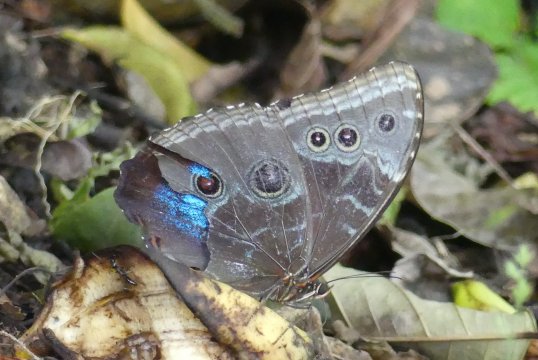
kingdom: Animalia
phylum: Arthropoda
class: Insecta
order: Lepidoptera
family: Nymphalidae
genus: Morpho
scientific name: Morpho helenor
